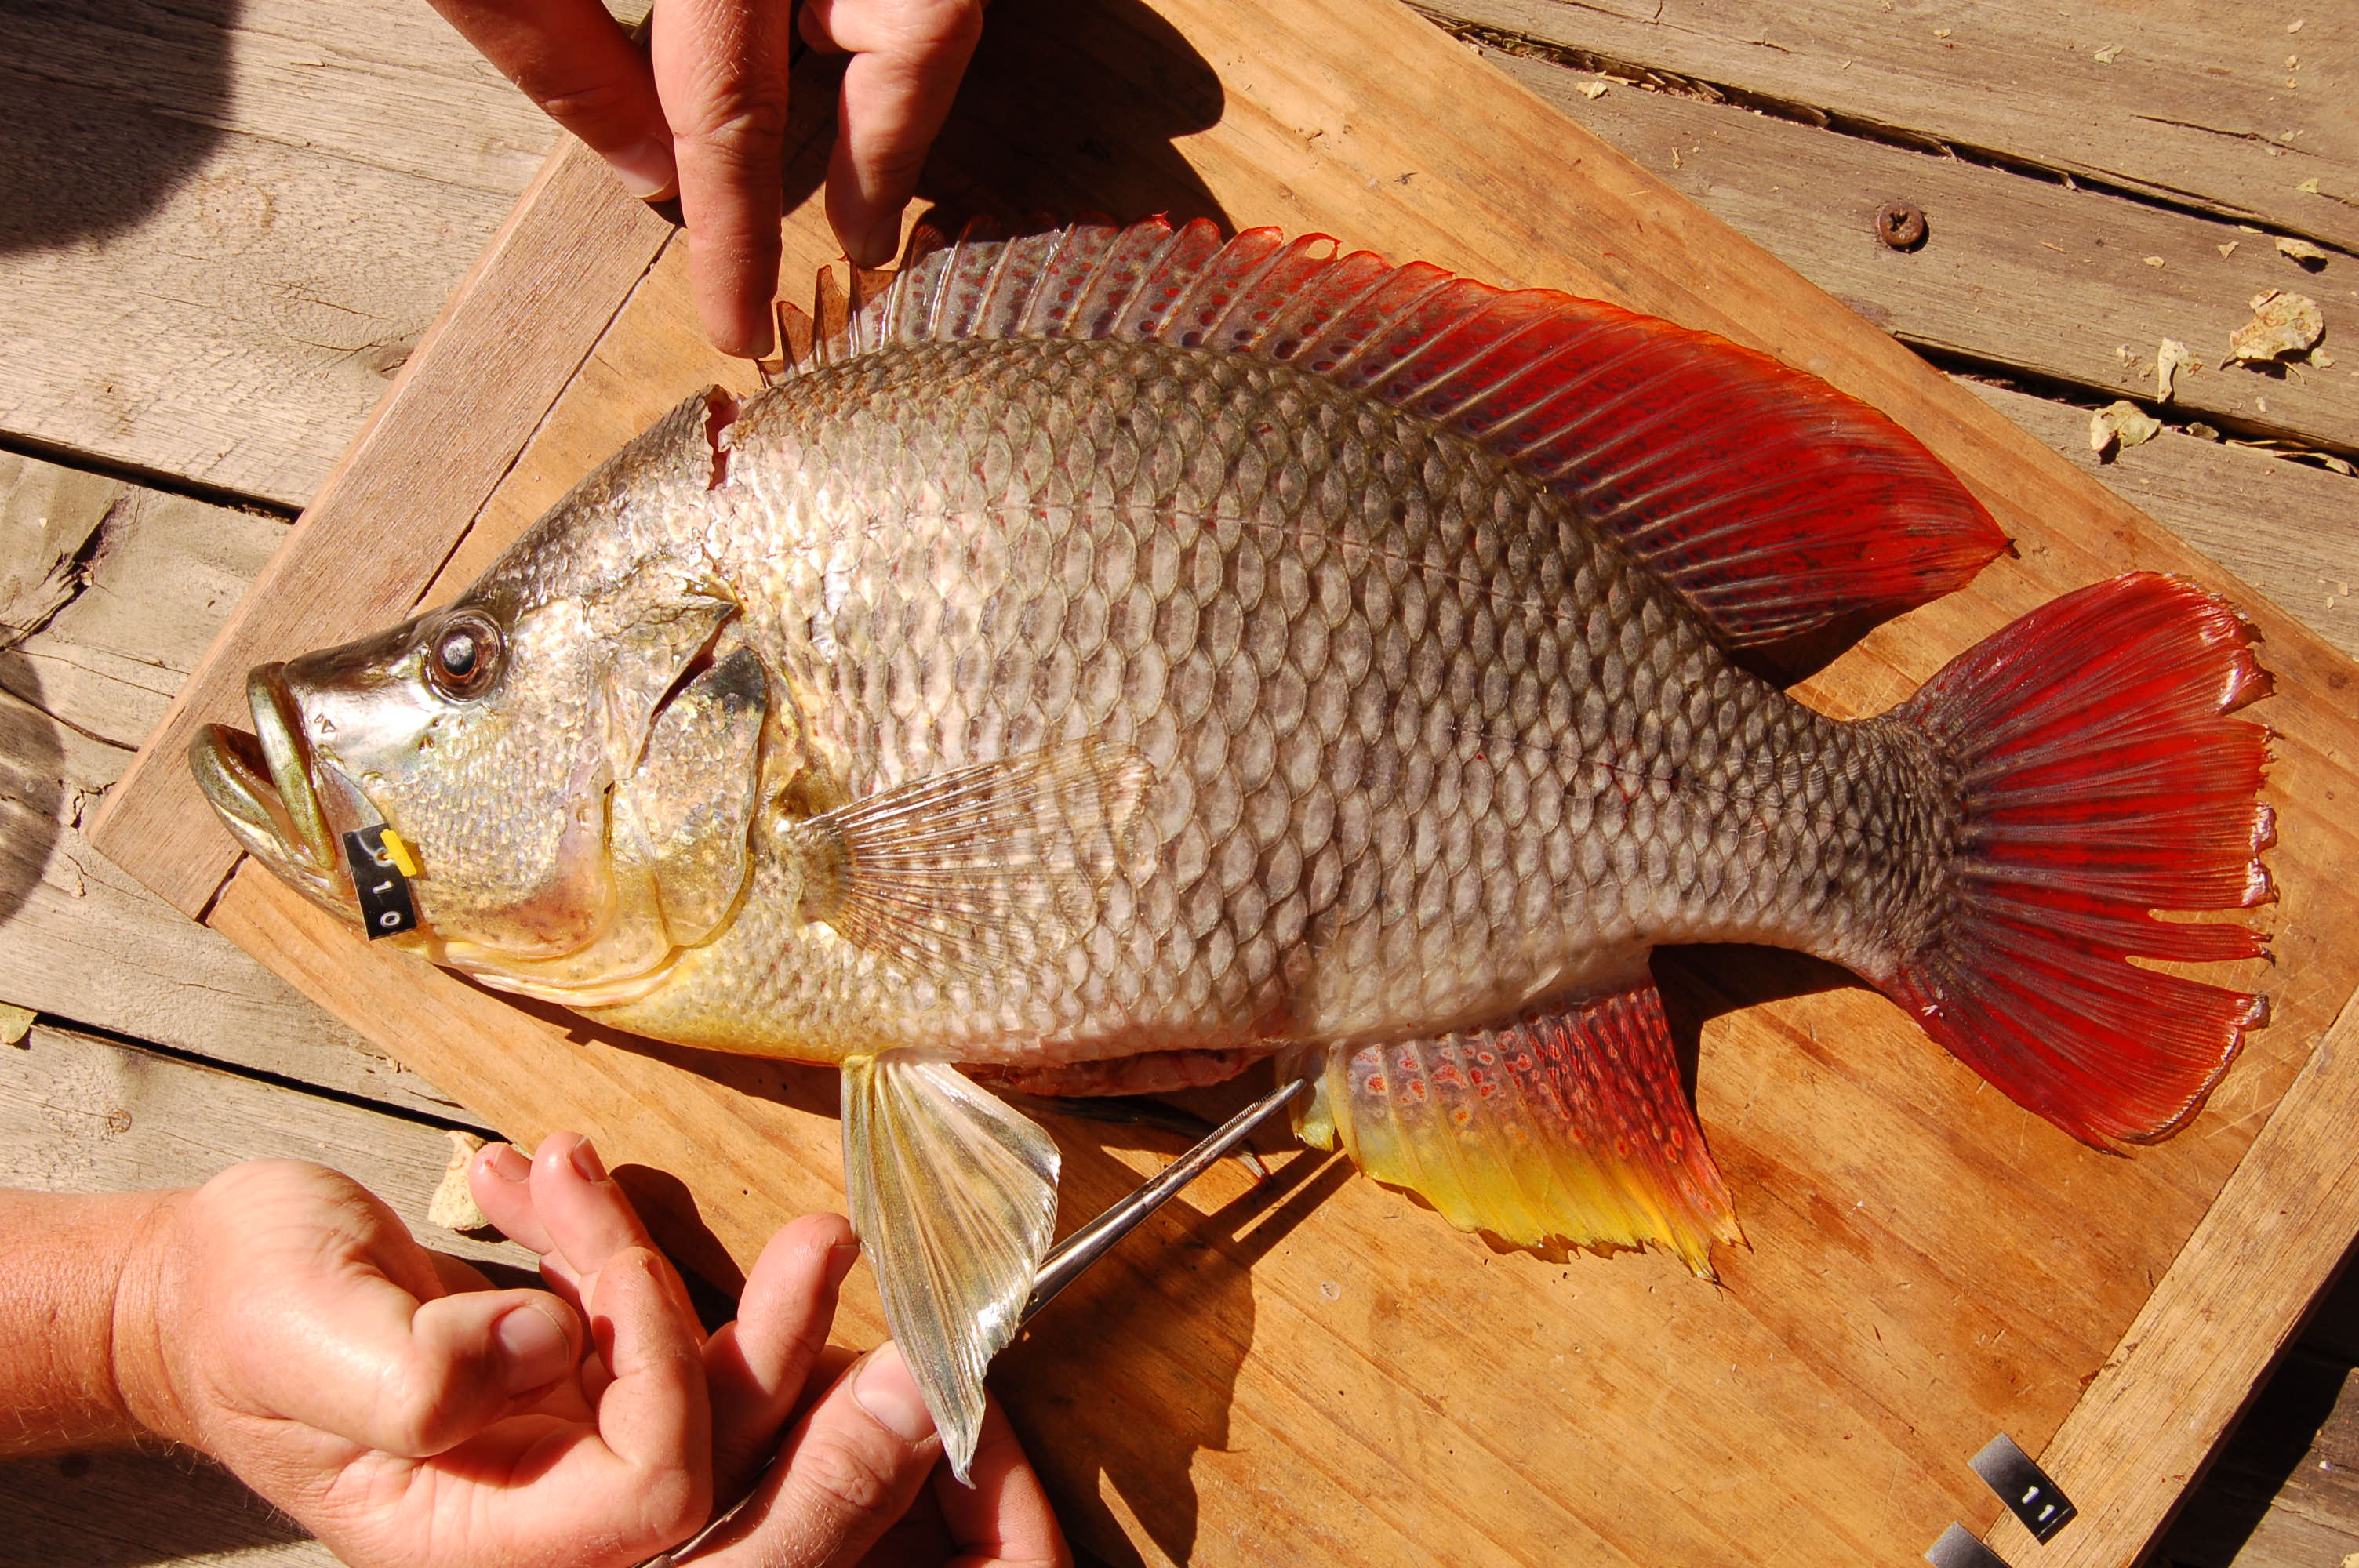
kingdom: Animalia
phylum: Chordata
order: Perciformes
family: Cichlidae
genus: Serranochromis
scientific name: Serranochromis altus
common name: Humpback largemouth
